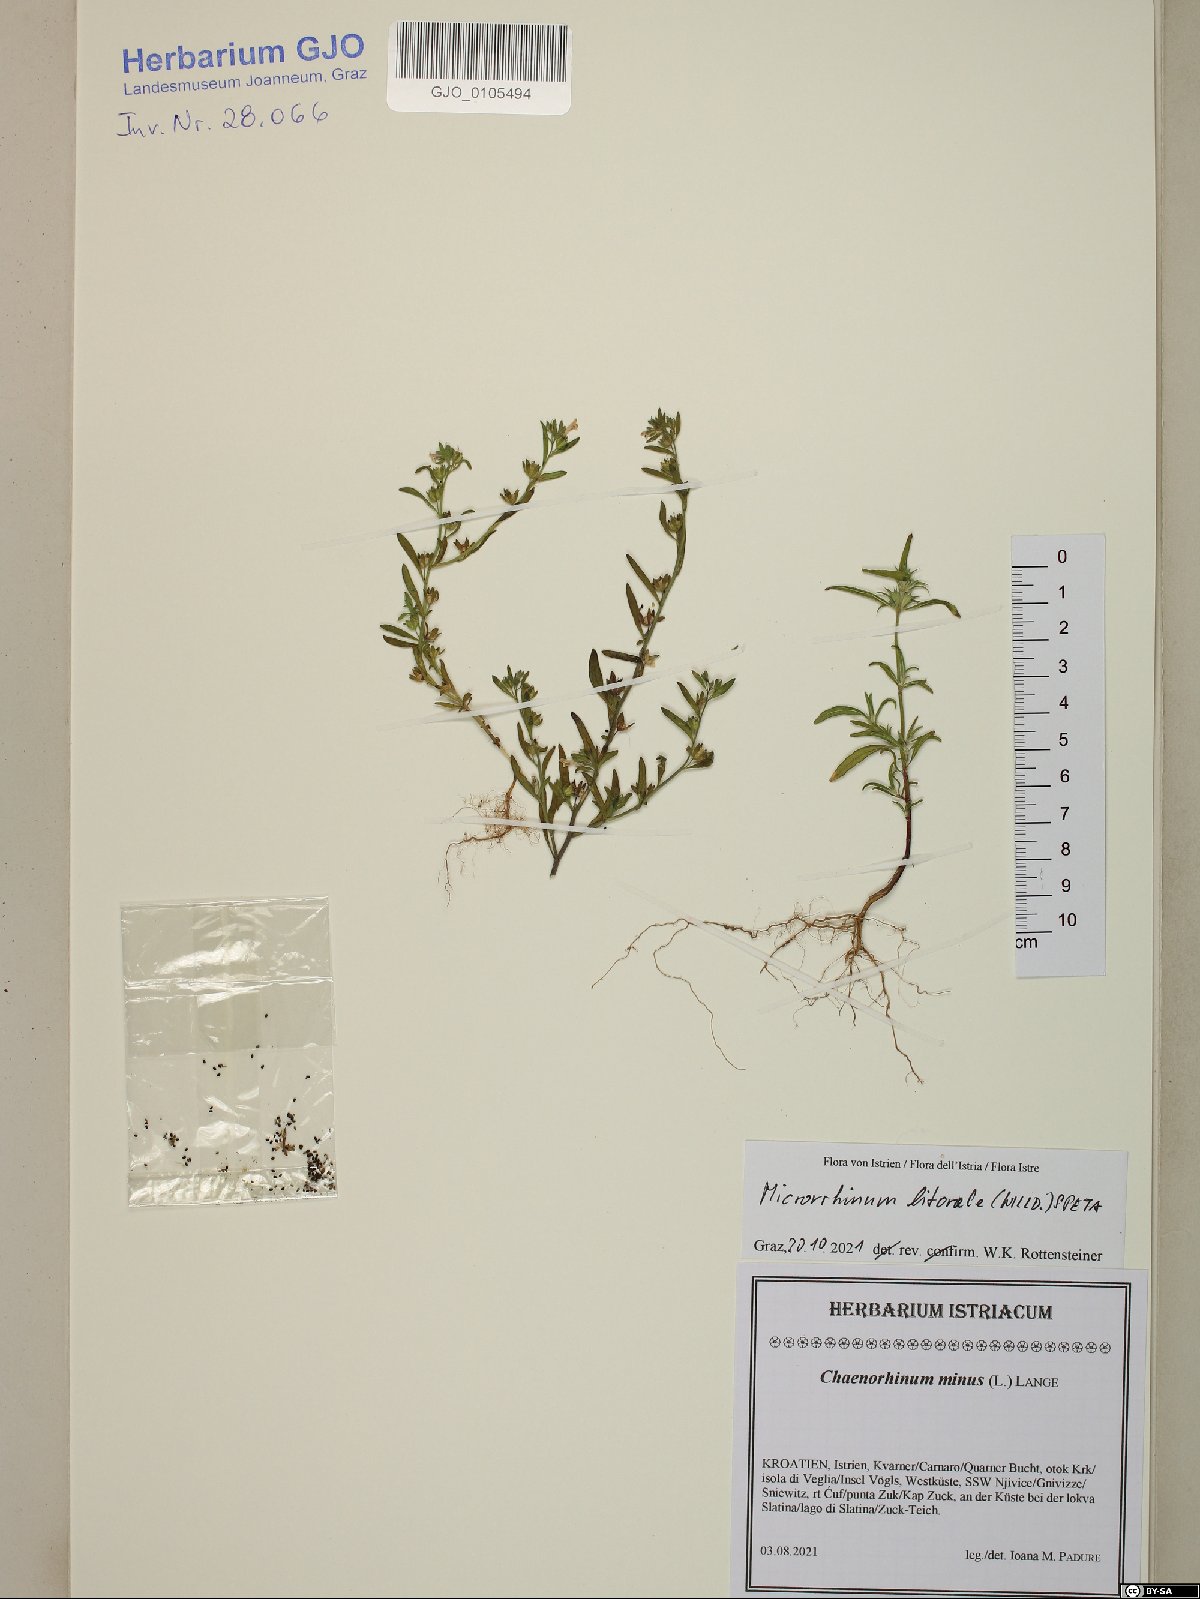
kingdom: Plantae
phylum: Tracheophyta
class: Magnoliopsida
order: Lamiales
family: Plantaginaceae
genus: Chaenorhinum
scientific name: Chaenorhinum litorale
